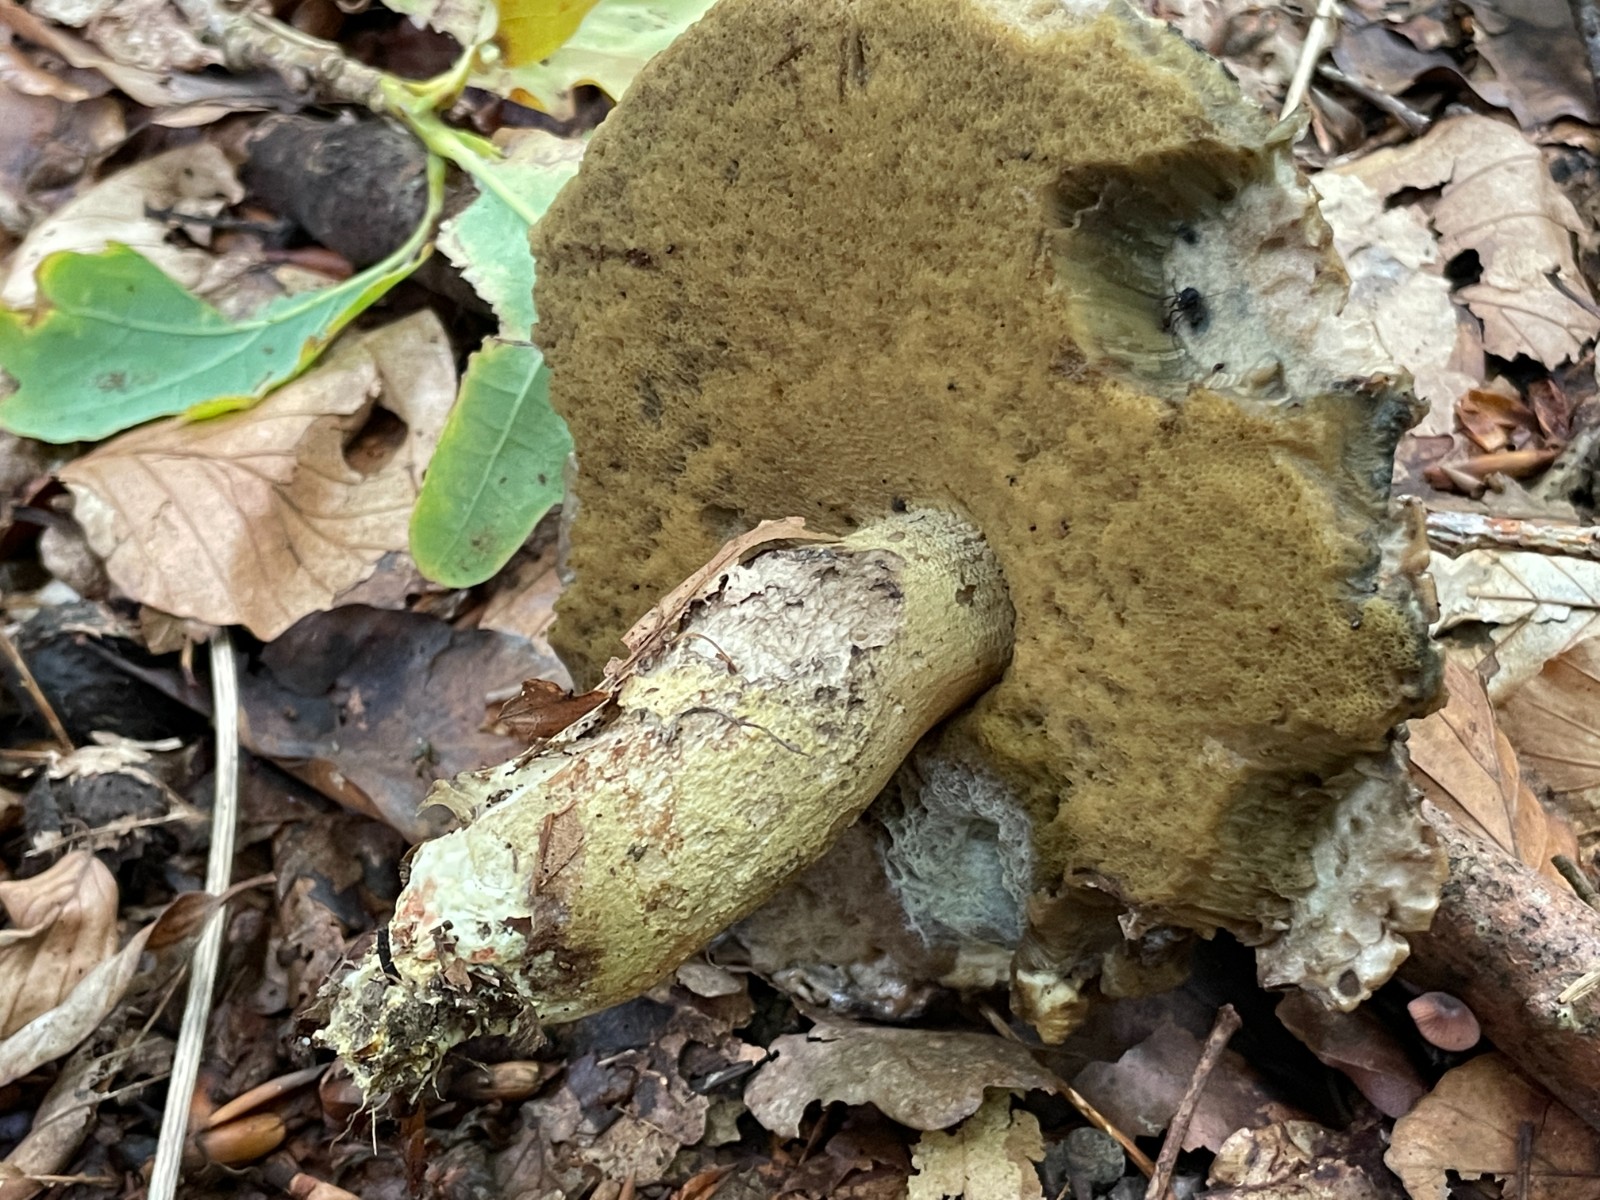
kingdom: Fungi
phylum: Basidiomycota
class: Agaricomycetes
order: Boletales
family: Boletaceae
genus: Leccinellum
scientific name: Leccinellum crocipodium
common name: gul skælrørhat
